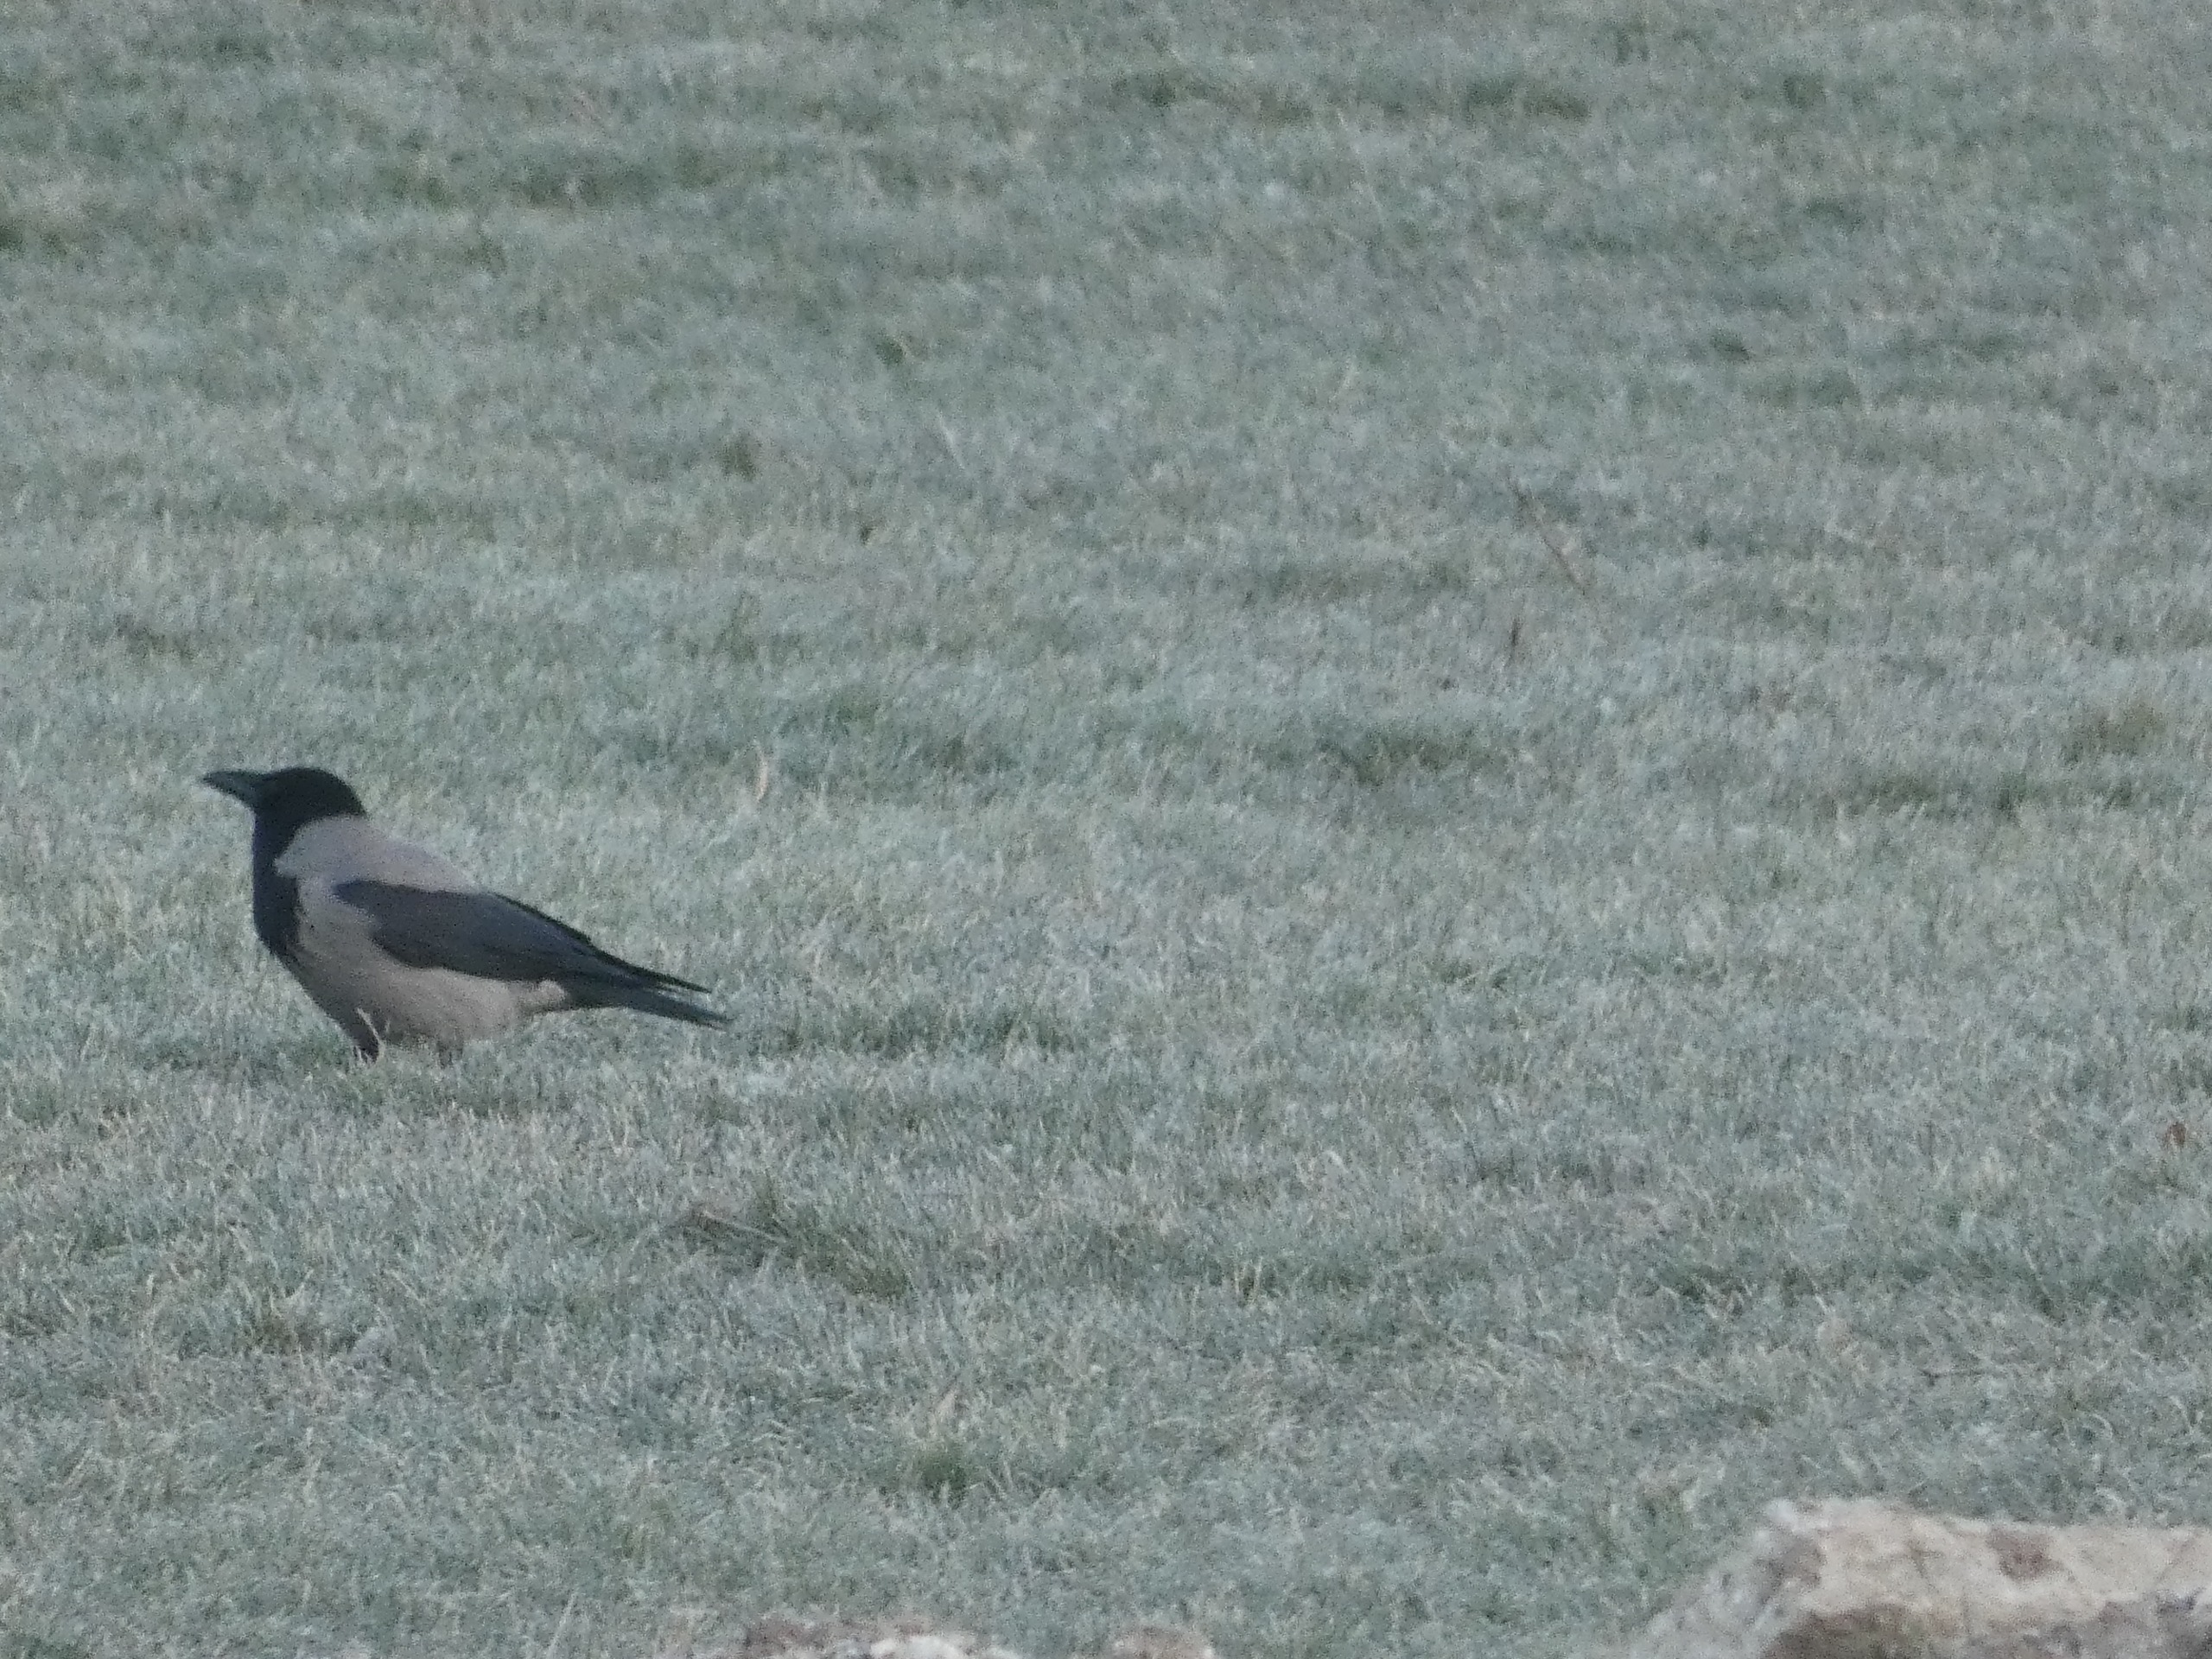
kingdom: Animalia
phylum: Chordata
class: Aves
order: Passeriformes
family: Corvidae
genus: Corvus
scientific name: Corvus cornix
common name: Gråkrage
